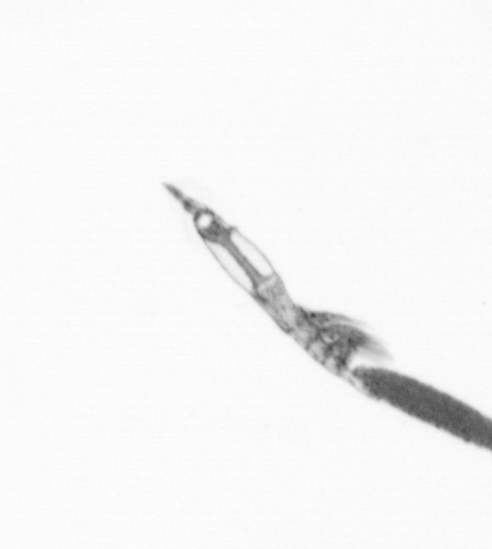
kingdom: Animalia
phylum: Arthropoda
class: Copepoda
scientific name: Copepoda
